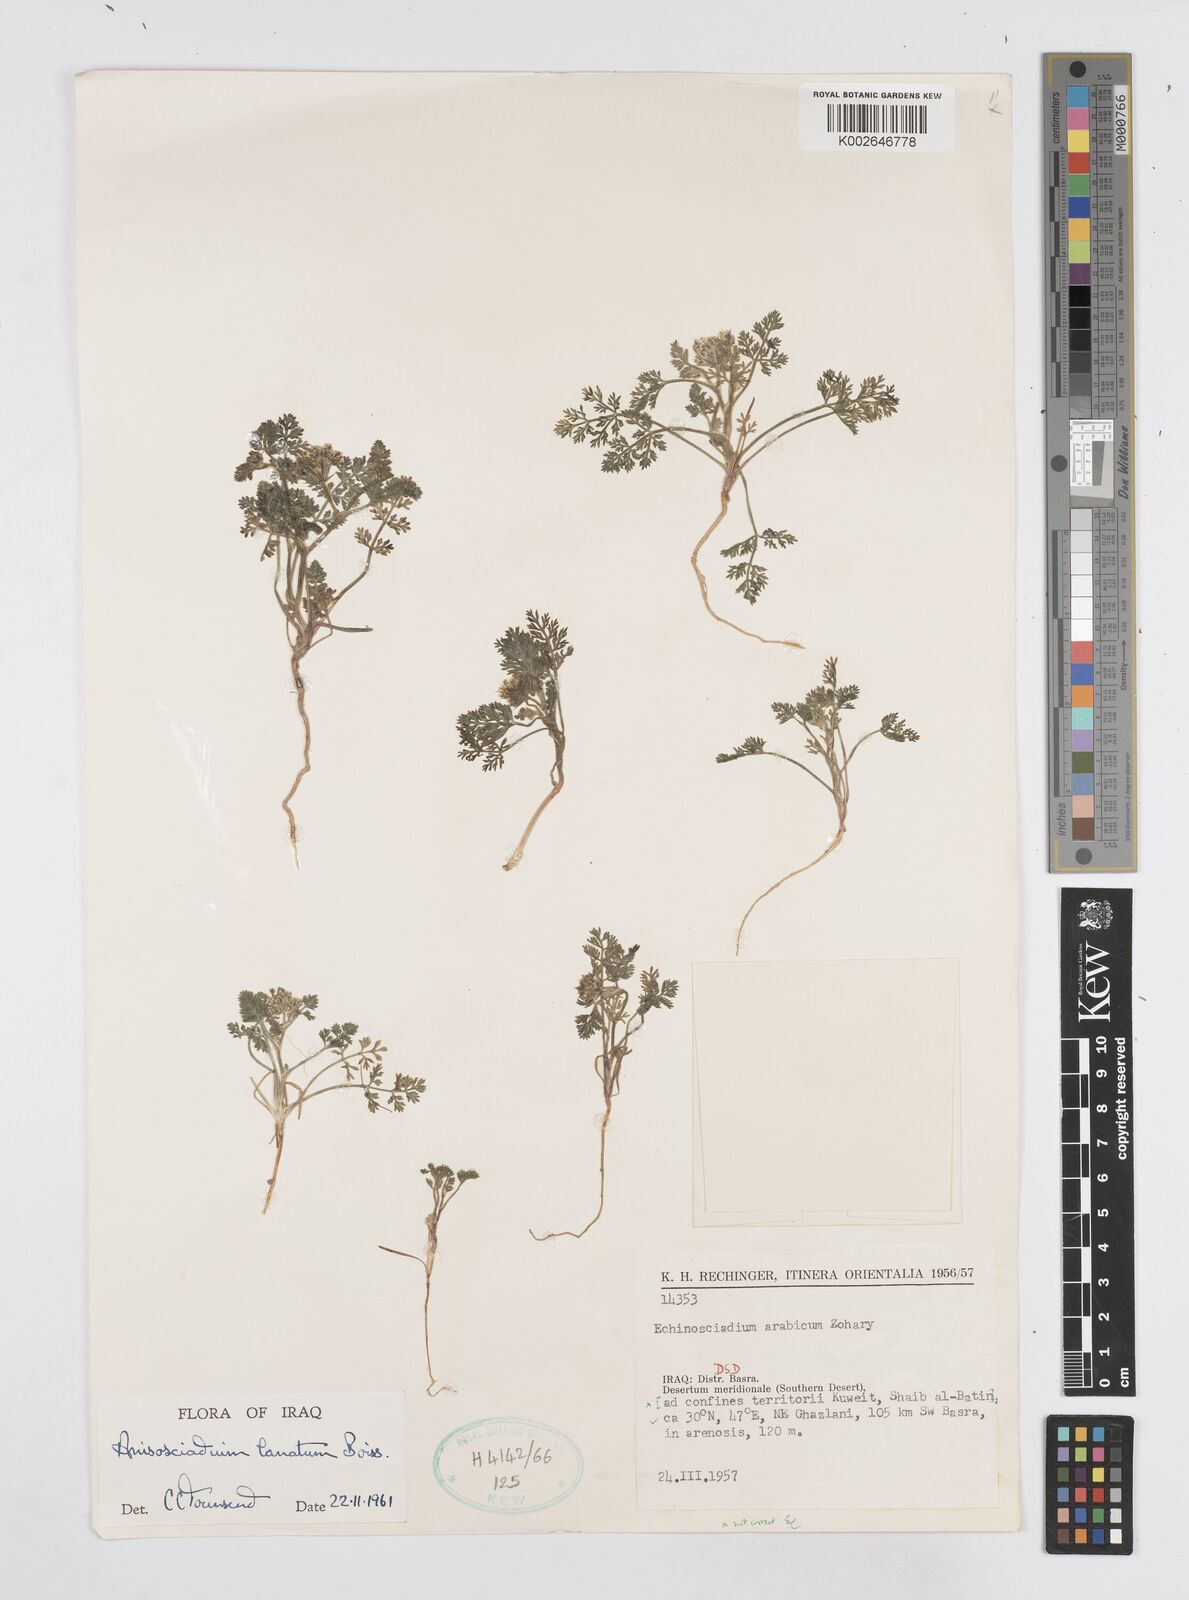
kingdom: Plantae
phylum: Tracheophyta
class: Magnoliopsida
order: Apiales
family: Apiaceae
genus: Anisosciadium
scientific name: Anisosciadium lanatum
